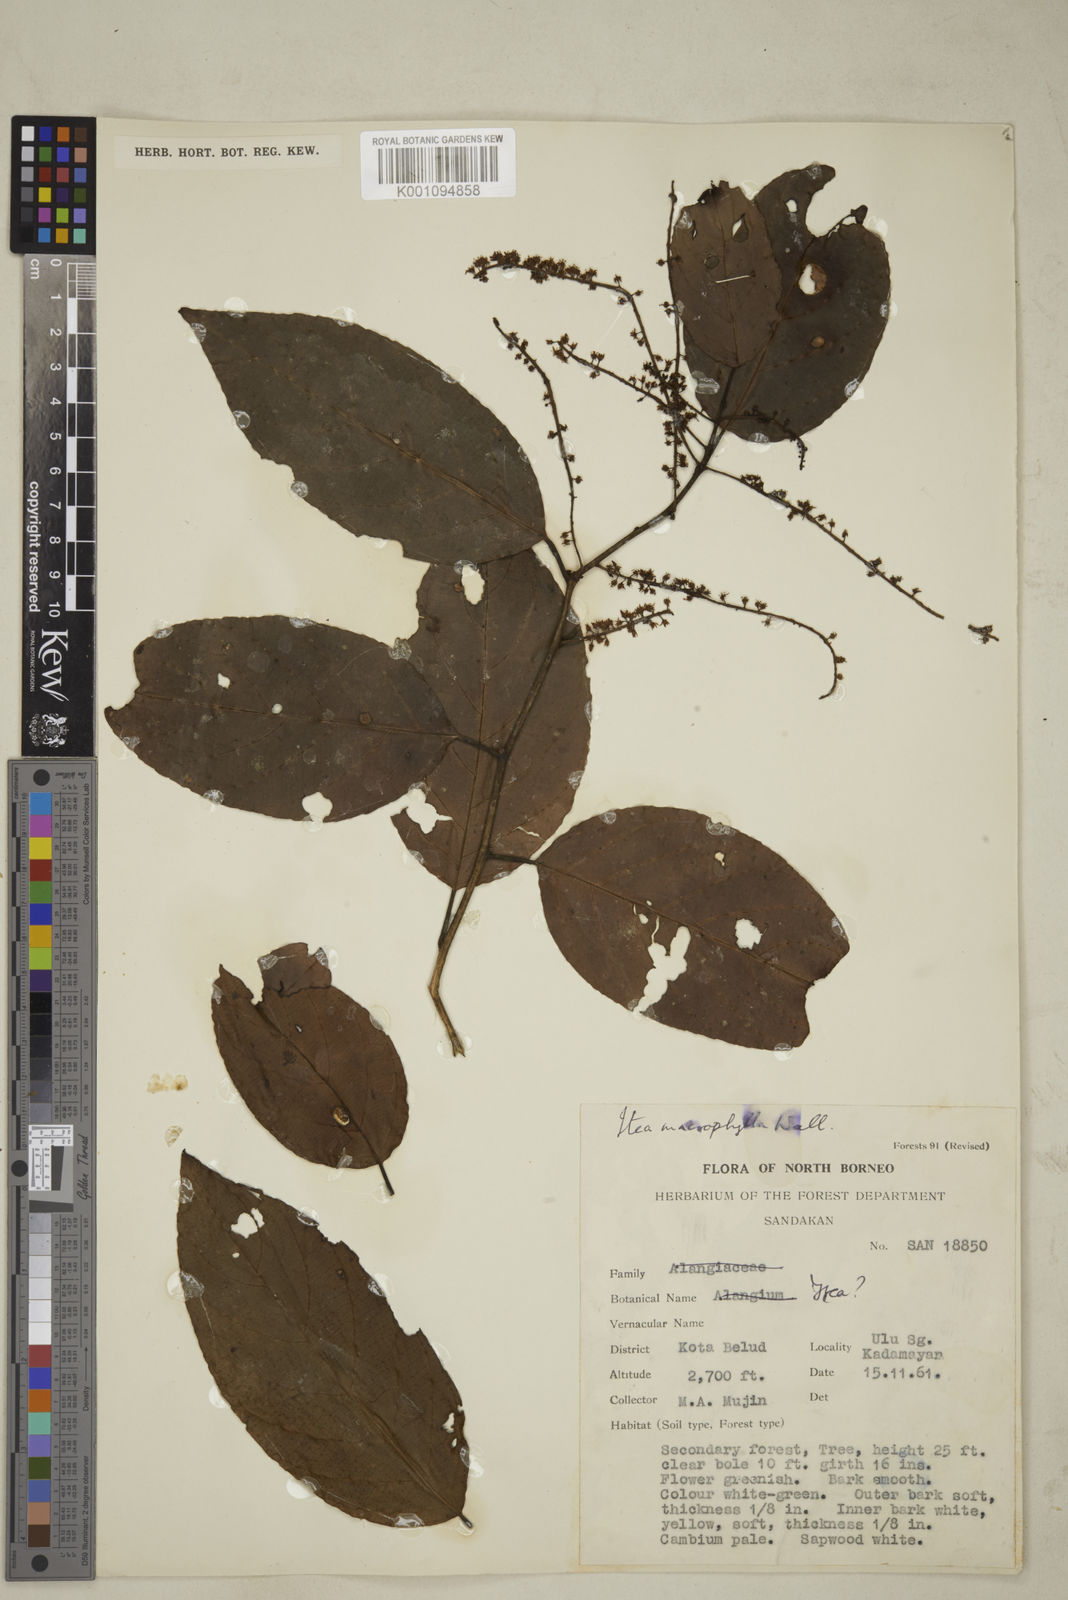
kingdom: Plantae
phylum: Tracheophyta
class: Magnoliopsida
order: Saxifragales
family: Iteaceae
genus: Itea
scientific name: Itea macrophylla
